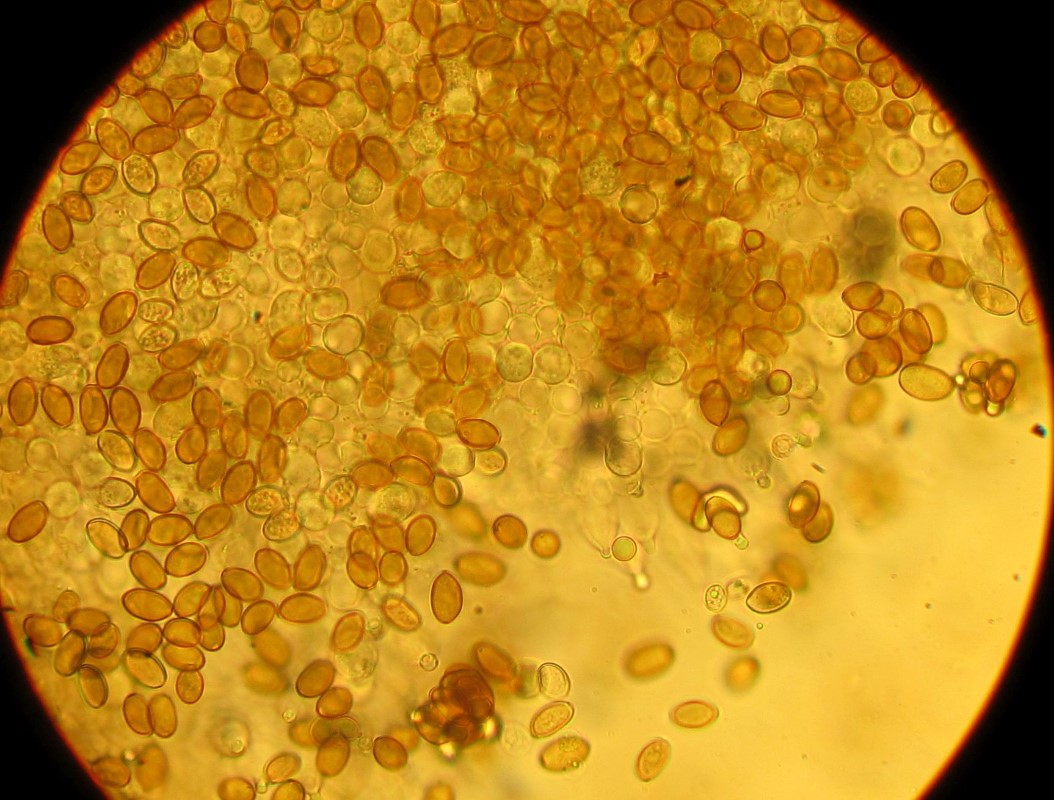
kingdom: Fungi
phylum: Basidiomycota
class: Agaricomycetes
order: Agaricales
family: Crepidotaceae
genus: Simocybe
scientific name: Simocybe centunculus
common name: enlig skyggehat
